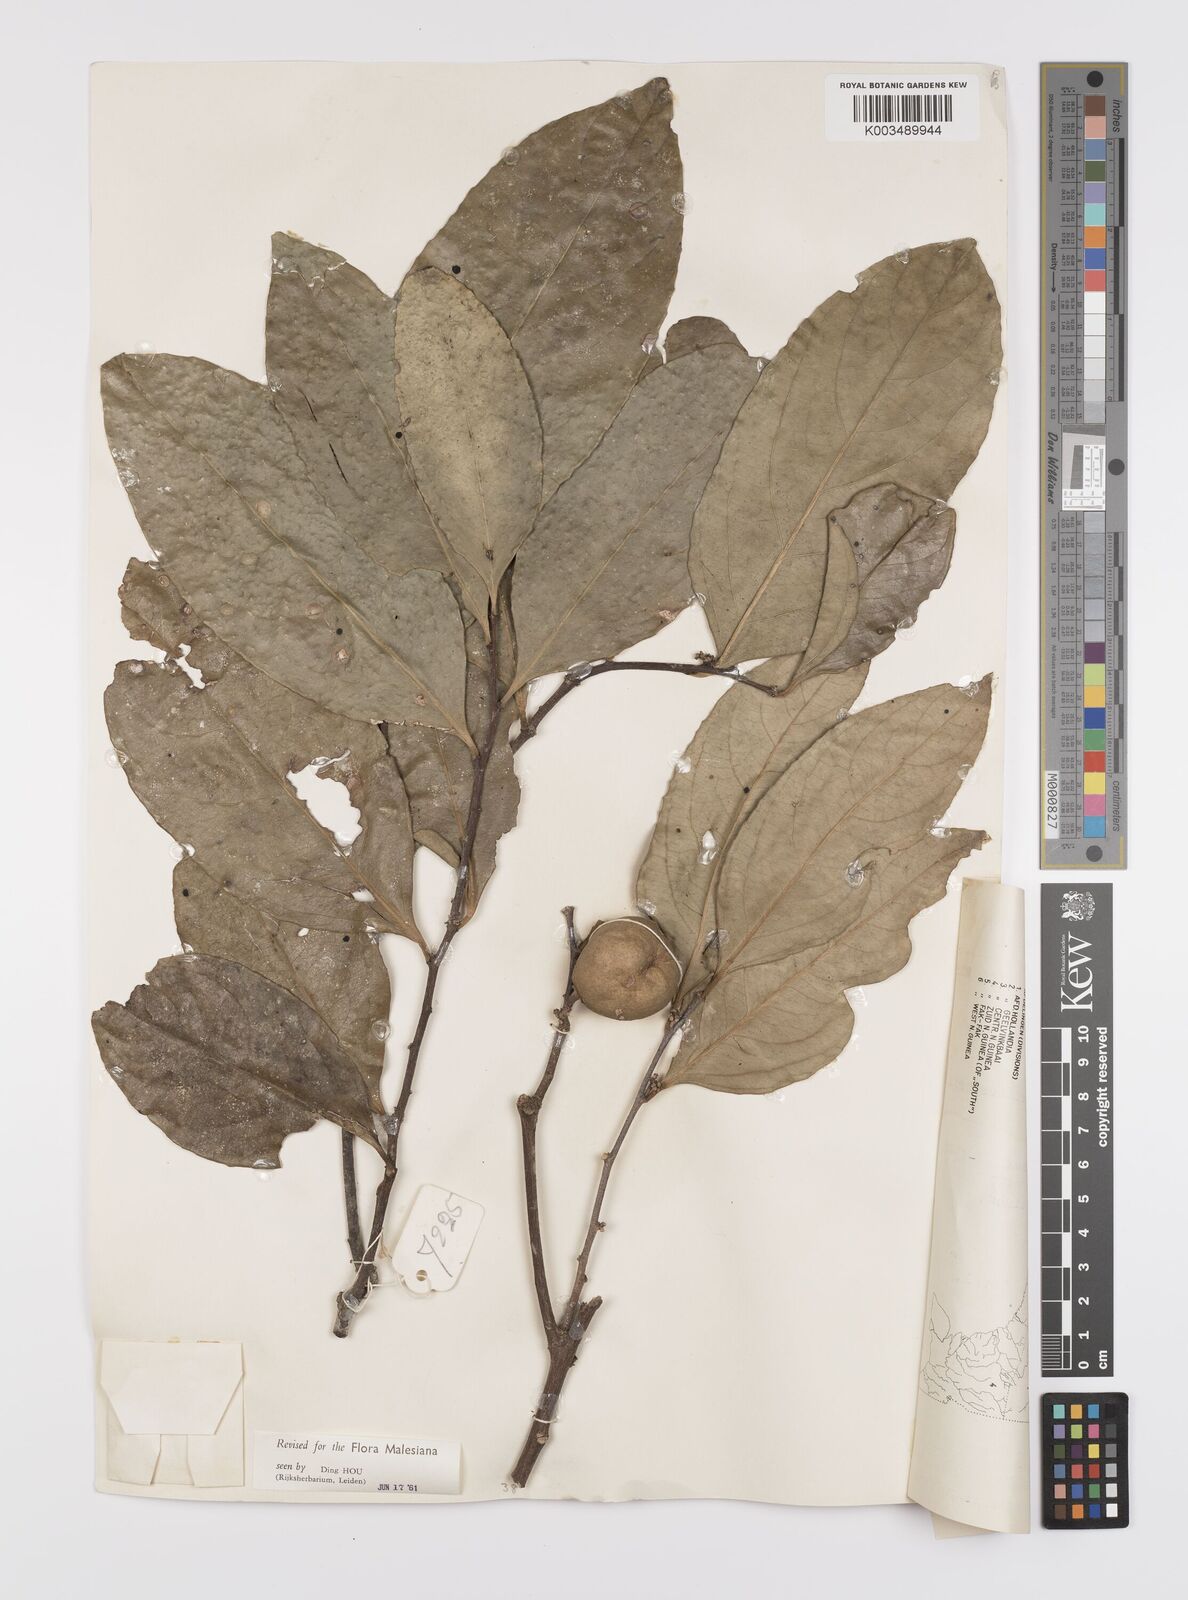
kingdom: Plantae
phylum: Tracheophyta
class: Magnoliopsida
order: Celastrales
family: Celastraceae
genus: Siphonodon
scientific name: Siphonodon celastrineus
